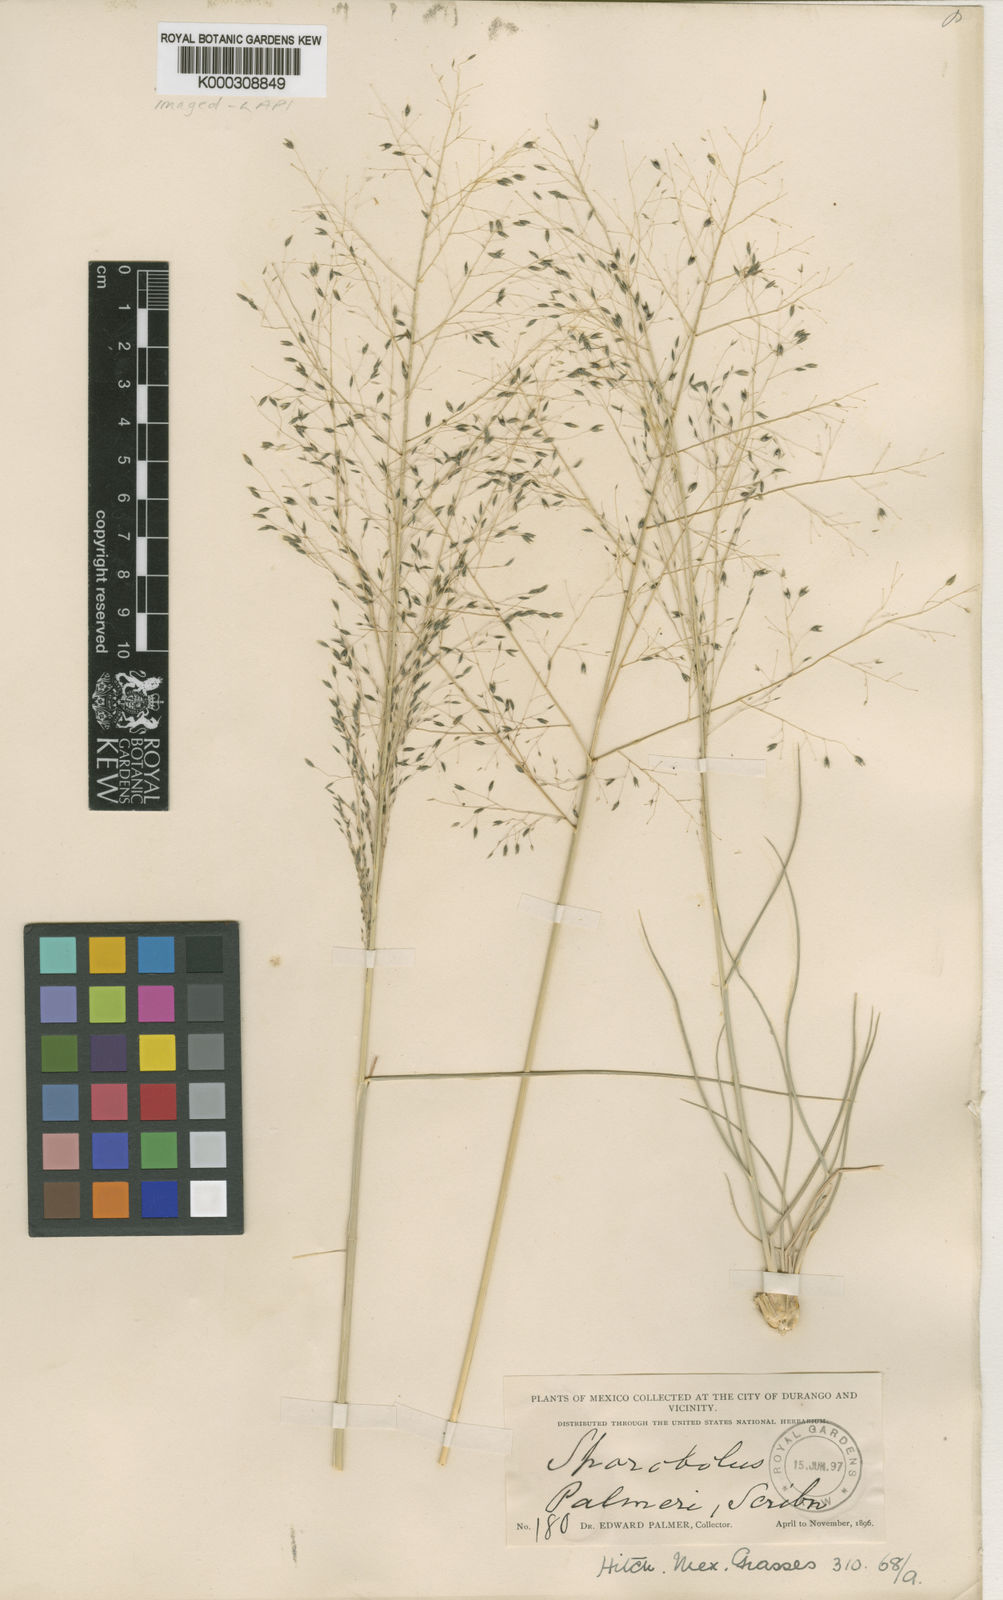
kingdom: Plantae
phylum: Tracheophyta
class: Liliopsida
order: Poales
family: Poaceae
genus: Sporobolus
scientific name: Sporobolus palmeri
